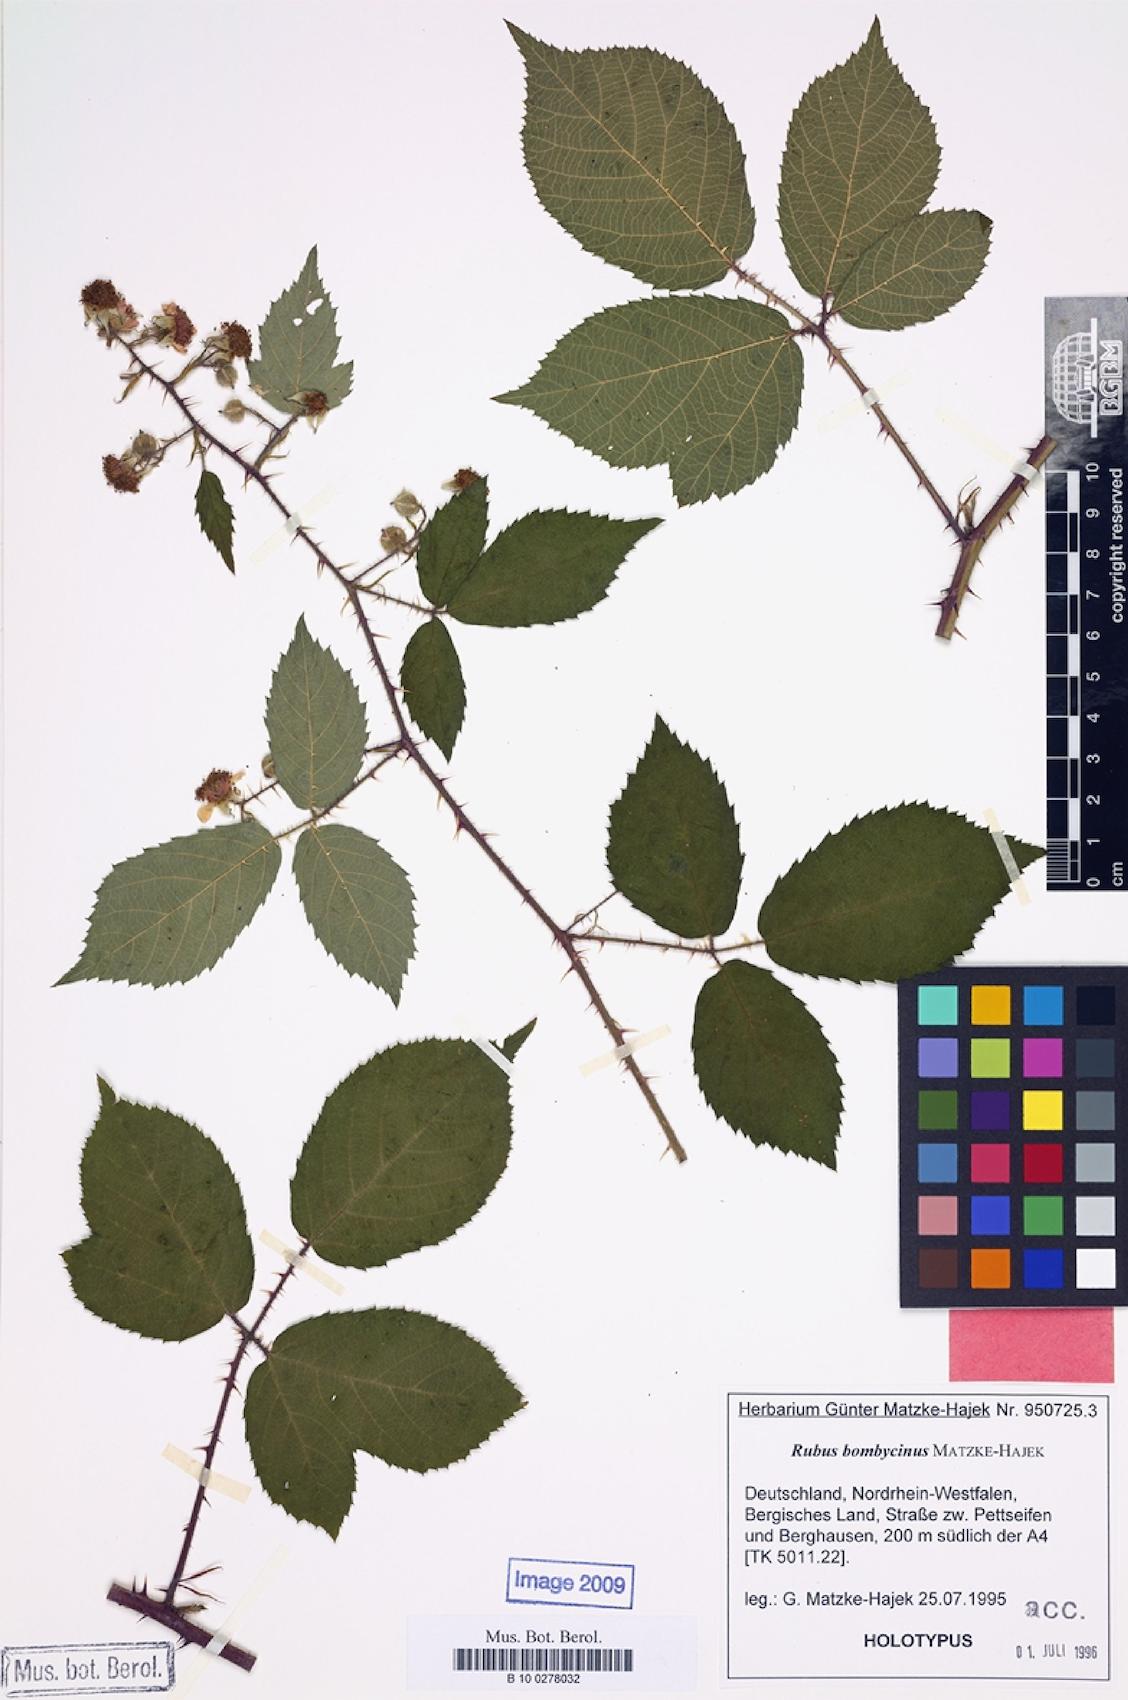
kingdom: Plantae
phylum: Tracheophyta
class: Magnoliopsida
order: Rosales
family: Rosaceae
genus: Rubus
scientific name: Rubus bombycinus
